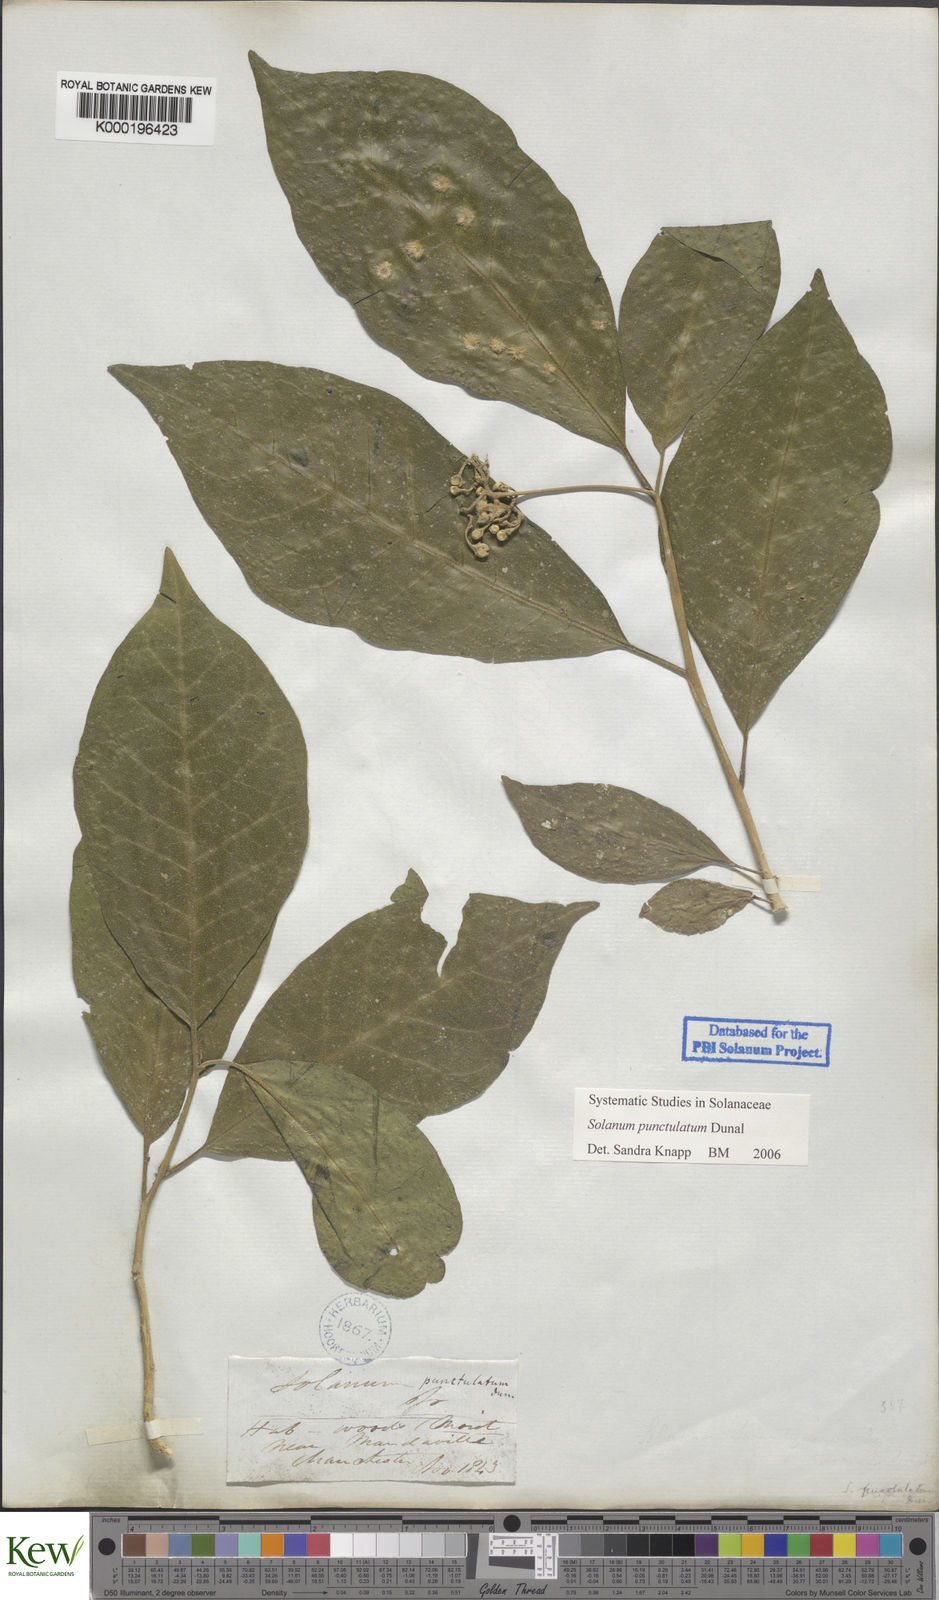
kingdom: Plantae
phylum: Tracheophyta
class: Magnoliopsida
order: Solanales
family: Solanaceae
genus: Solanum
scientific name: Solanum punctulatum
